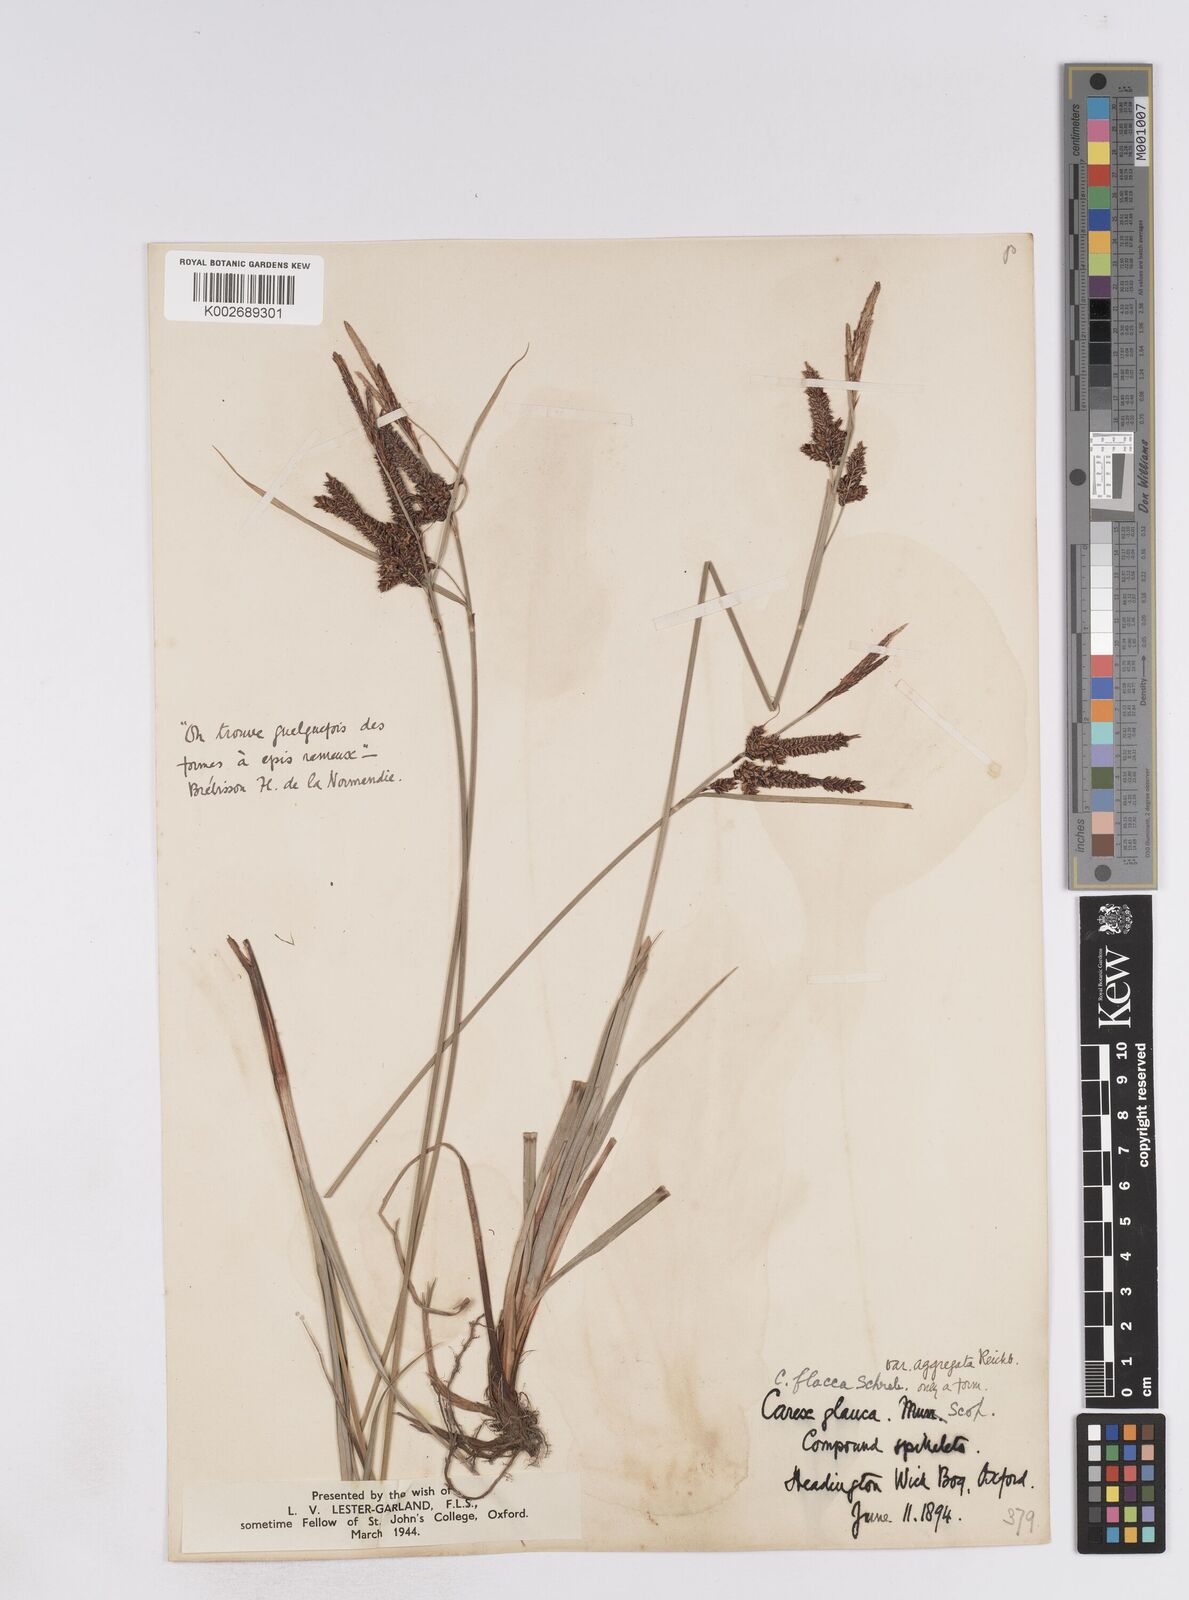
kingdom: Plantae
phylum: Tracheophyta
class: Liliopsida
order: Poales
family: Cyperaceae
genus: Carex
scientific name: Carex flacca
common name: Glaucous sedge
